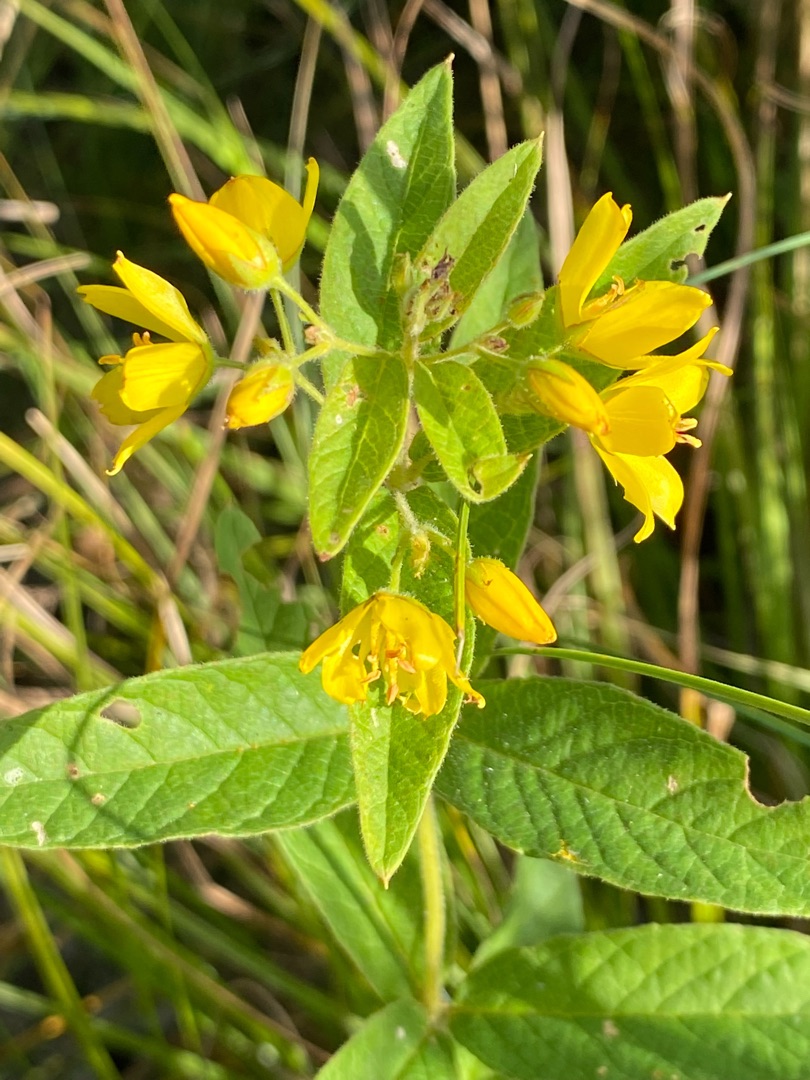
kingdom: Plantae
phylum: Tracheophyta
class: Magnoliopsida
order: Ericales
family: Primulaceae
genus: Lysimachia
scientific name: Lysimachia vulgaris
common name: Almindelig fredløs
